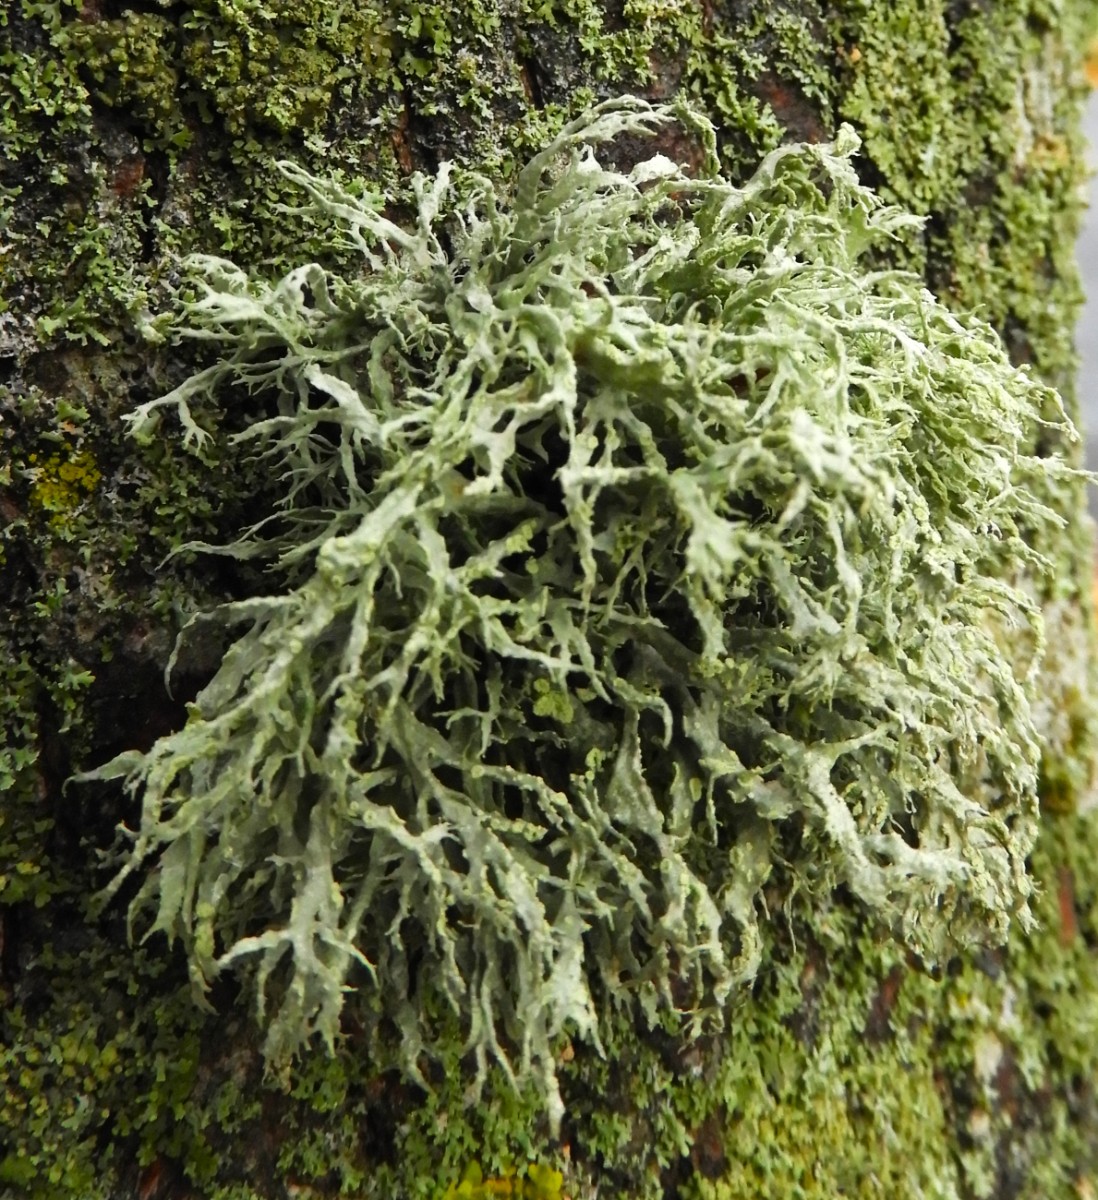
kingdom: Fungi
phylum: Ascomycota
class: Lecanoromycetes
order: Lecanorales
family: Ramalinaceae
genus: Ramalina
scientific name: Ramalina farinacea
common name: melet grenlav
